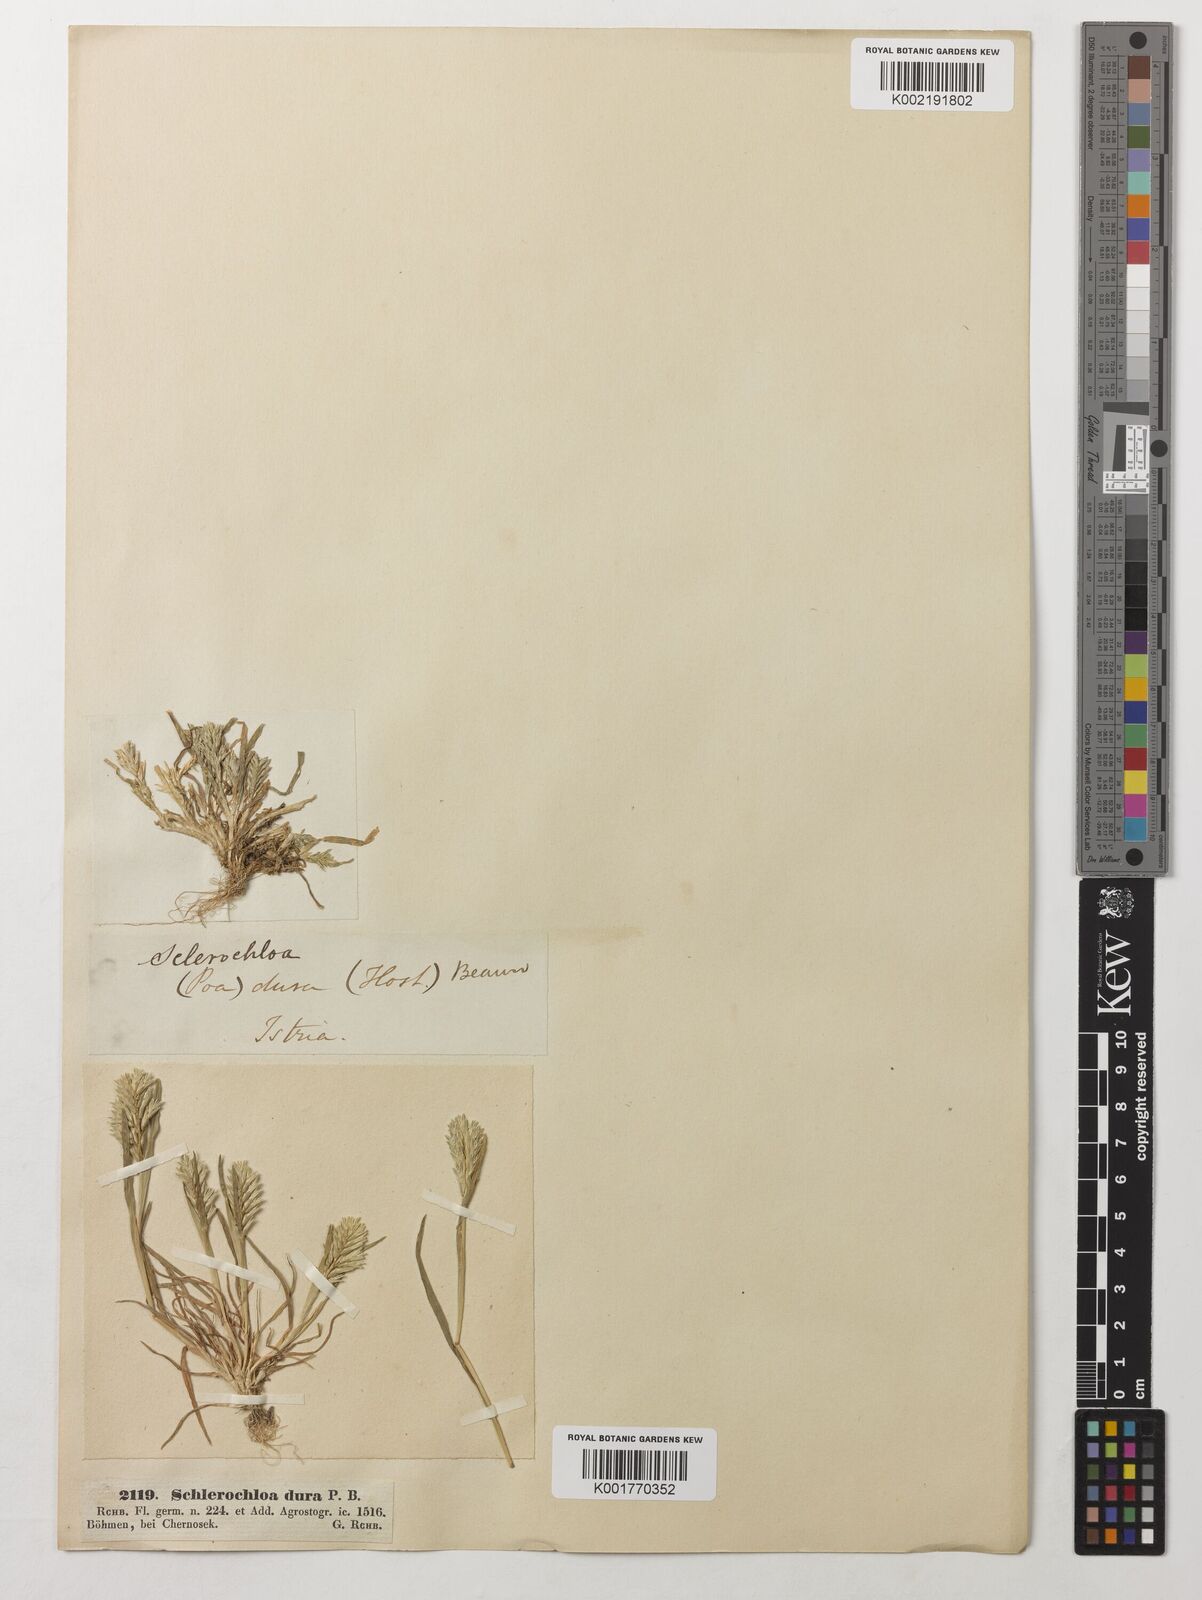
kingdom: Plantae
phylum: Tracheophyta
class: Liliopsida
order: Poales
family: Poaceae
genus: Sclerochloa
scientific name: Sclerochloa dura
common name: Common hardgrass
